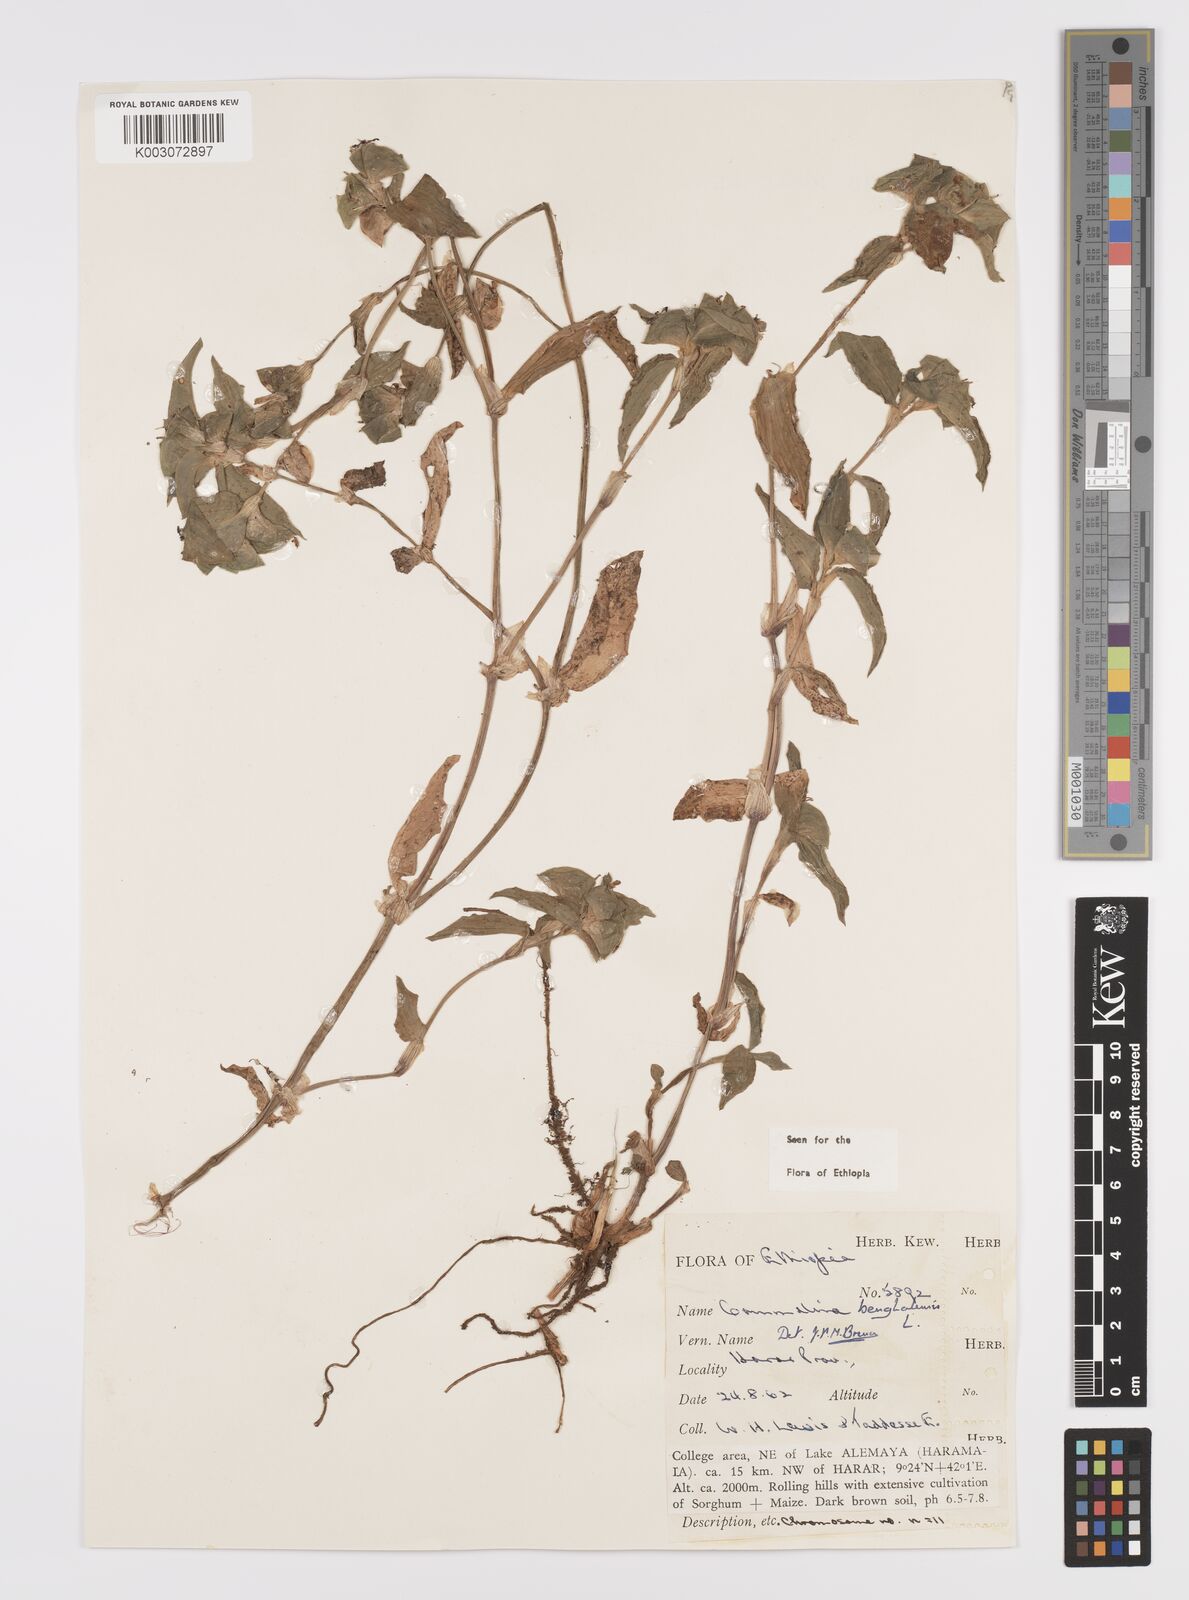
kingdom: Plantae
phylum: Tracheophyta
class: Liliopsida
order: Commelinales
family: Commelinaceae
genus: Commelina
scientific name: Commelina benghalensis
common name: Jio
